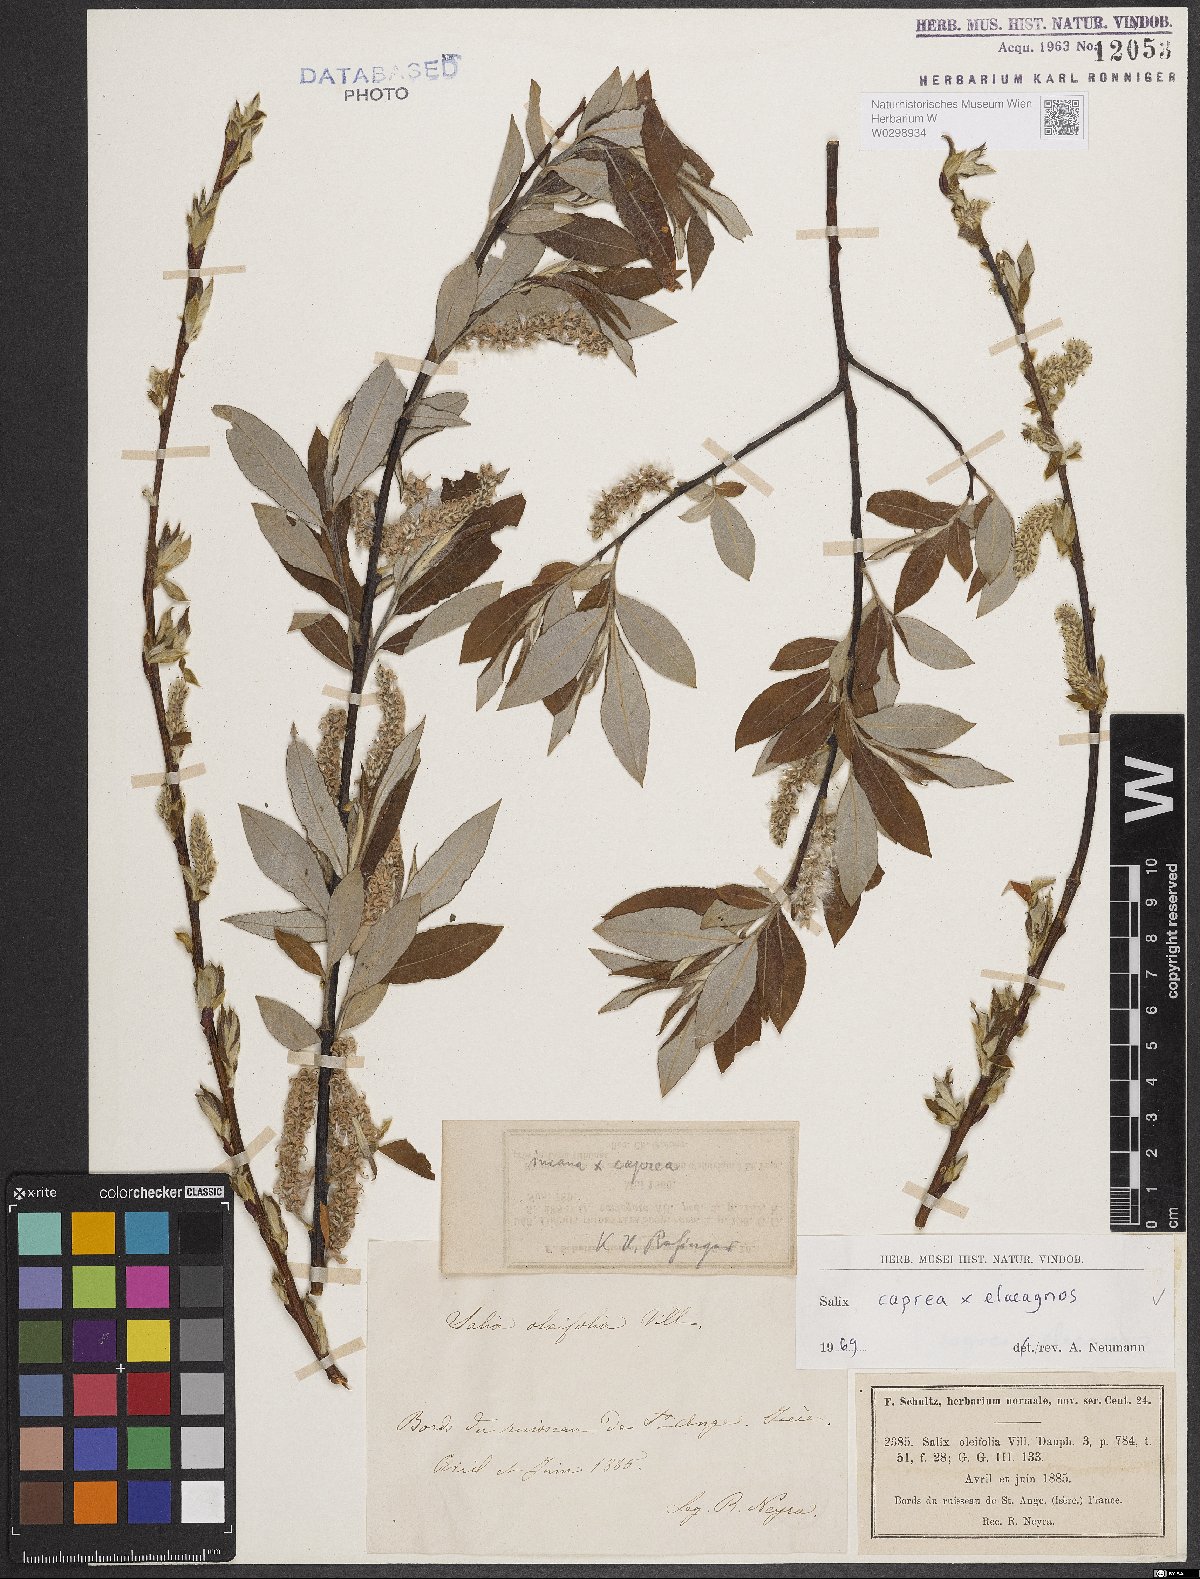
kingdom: Plantae
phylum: Tracheophyta
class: Magnoliopsida
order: Malpighiales
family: Salicaceae
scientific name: Salicaceae
